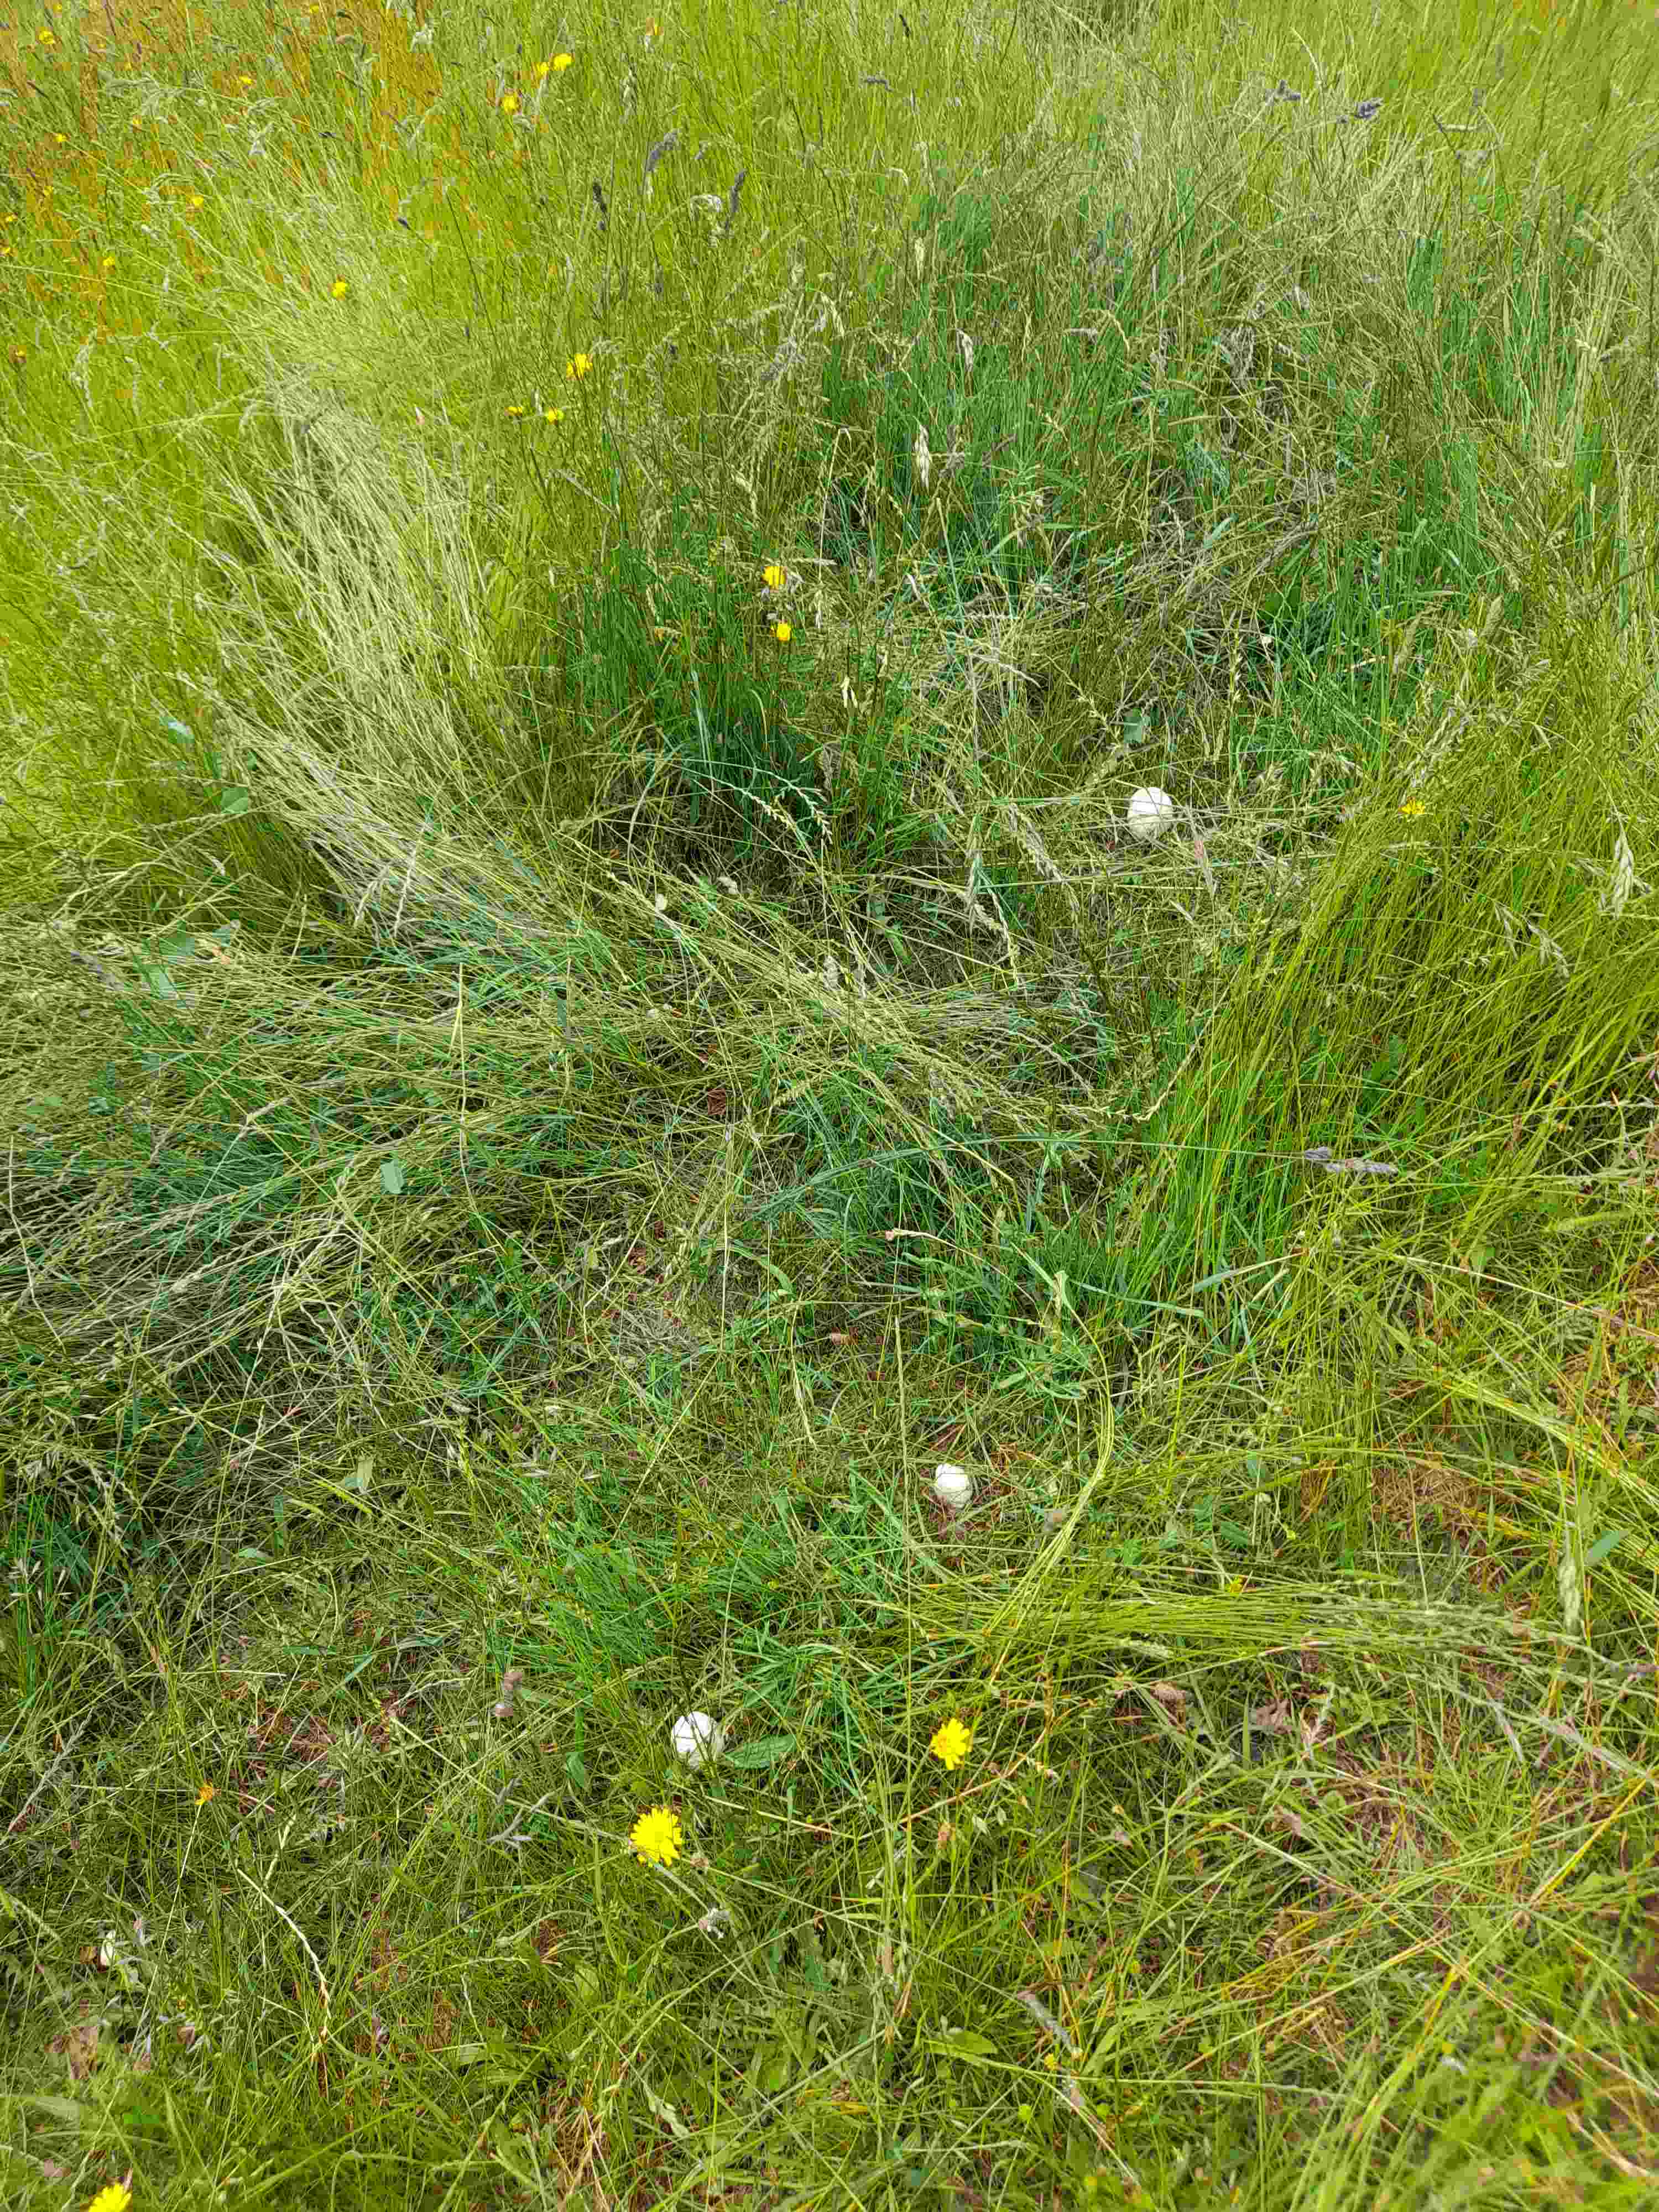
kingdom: Fungi
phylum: Basidiomycota
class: Agaricomycetes
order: Agaricales
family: Agaricaceae
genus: Agaricus
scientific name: Agaricus
